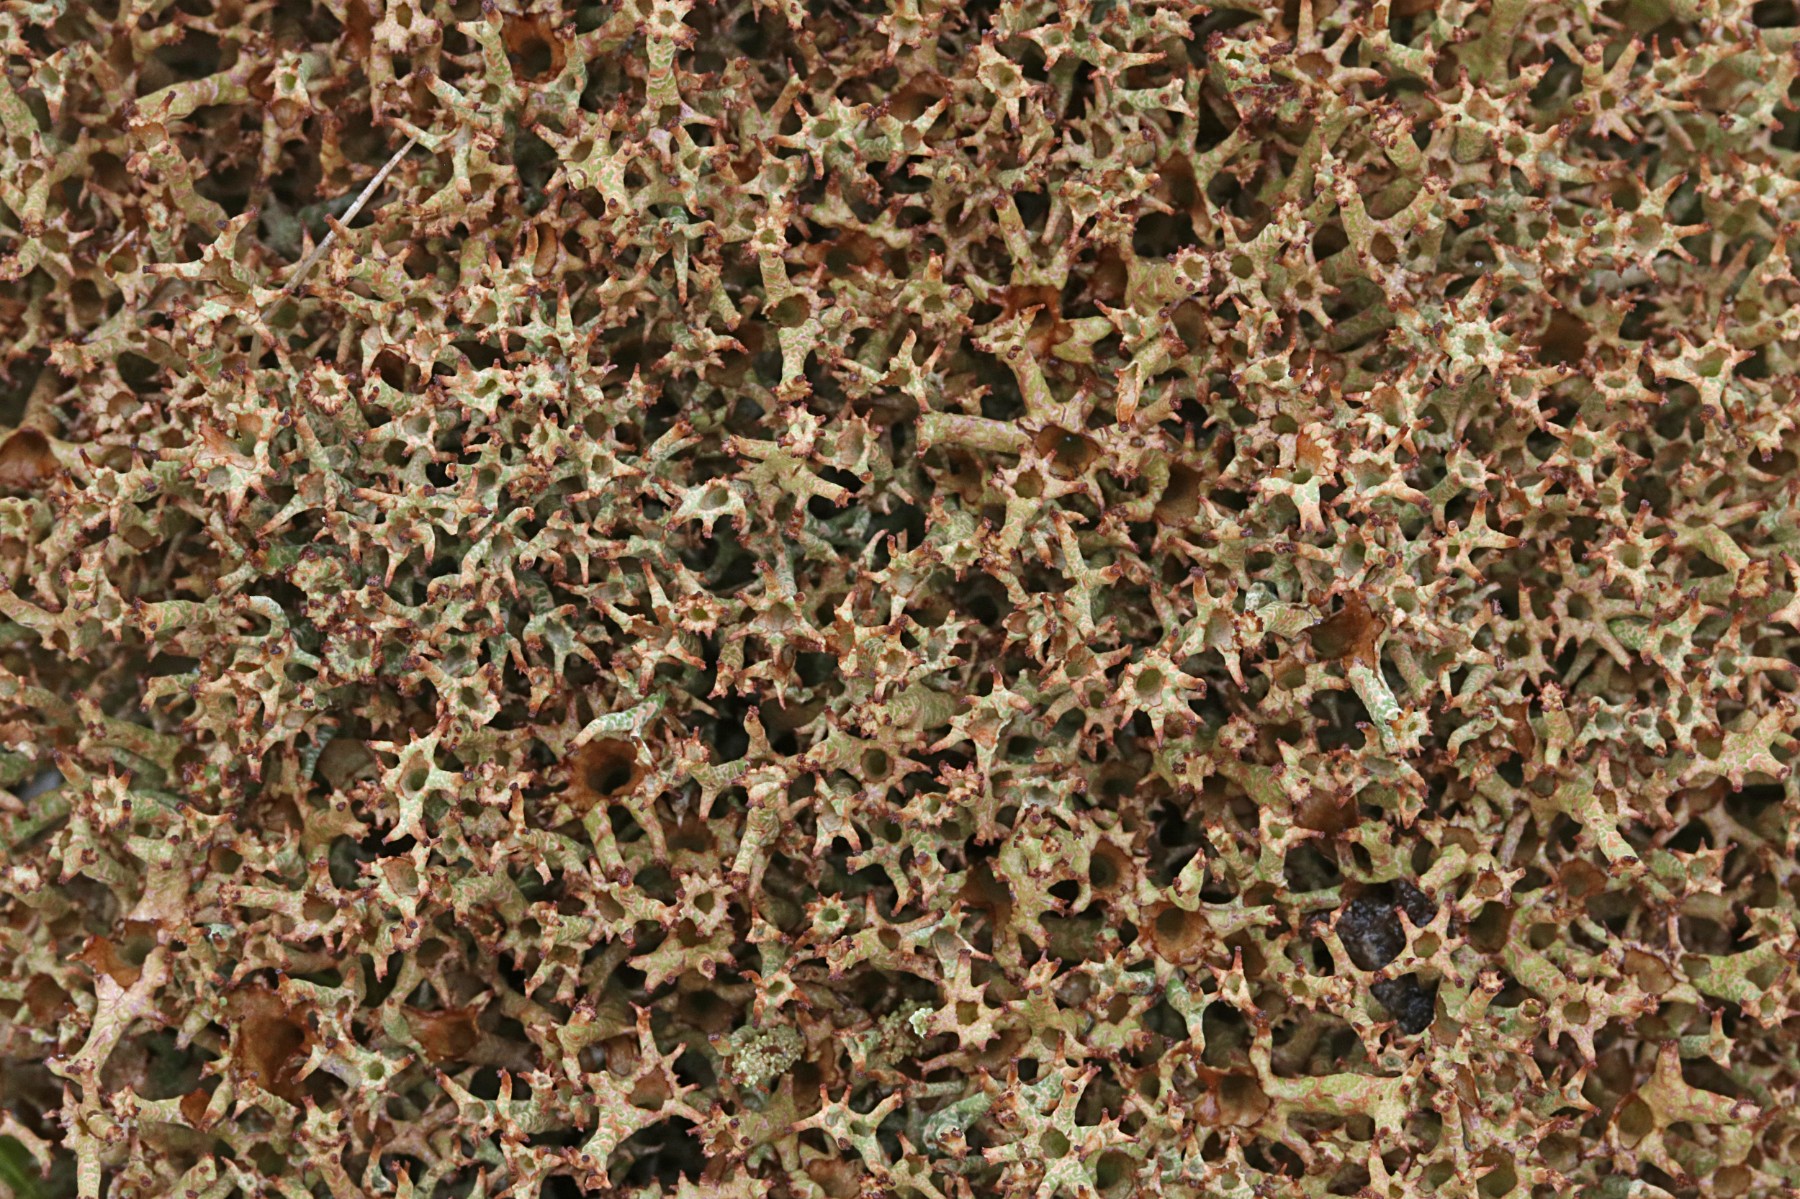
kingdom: Fungi
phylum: Ascomycota
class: Lecanoromycetes
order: Lecanorales
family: Cladoniaceae
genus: Cladonia
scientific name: Cladonia crispata
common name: takket bægerlav
